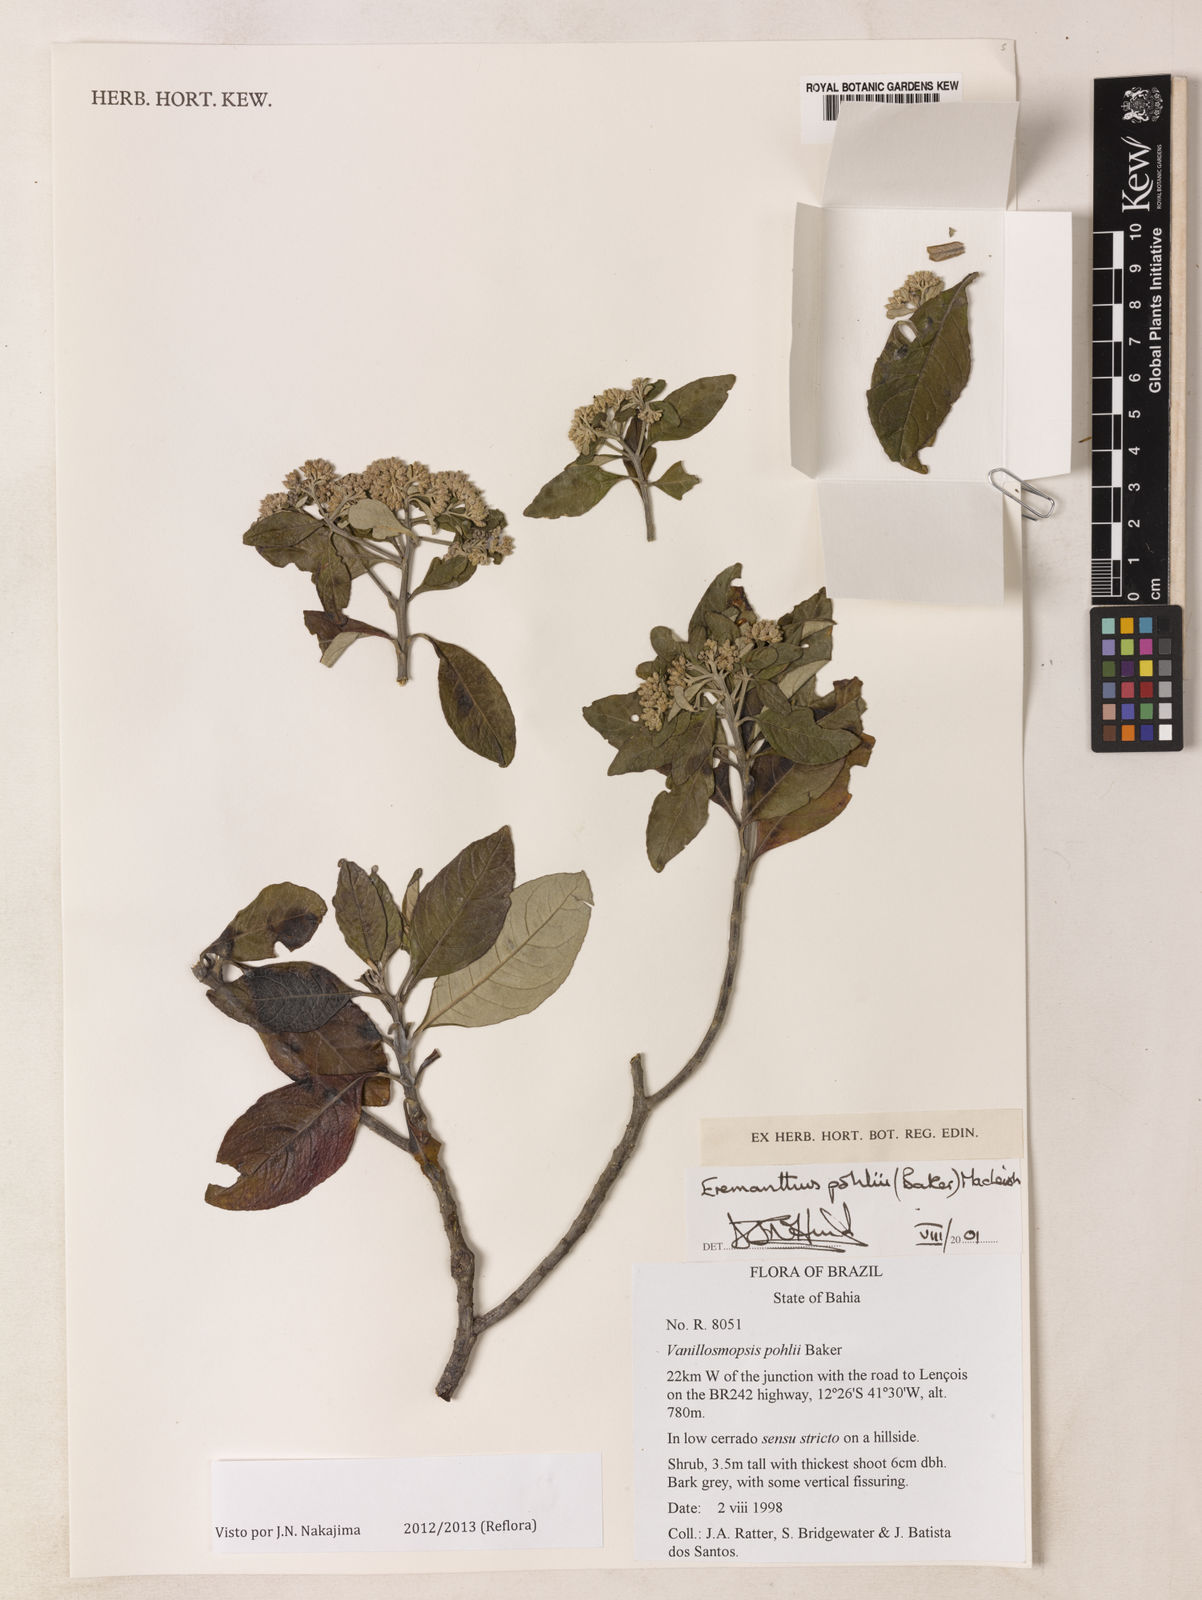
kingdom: Plantae
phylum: Tracheophyta
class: Magnoliopsida
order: Asterales
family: Asteraceae
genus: Eremanthus
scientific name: Eremanthus capitatus
